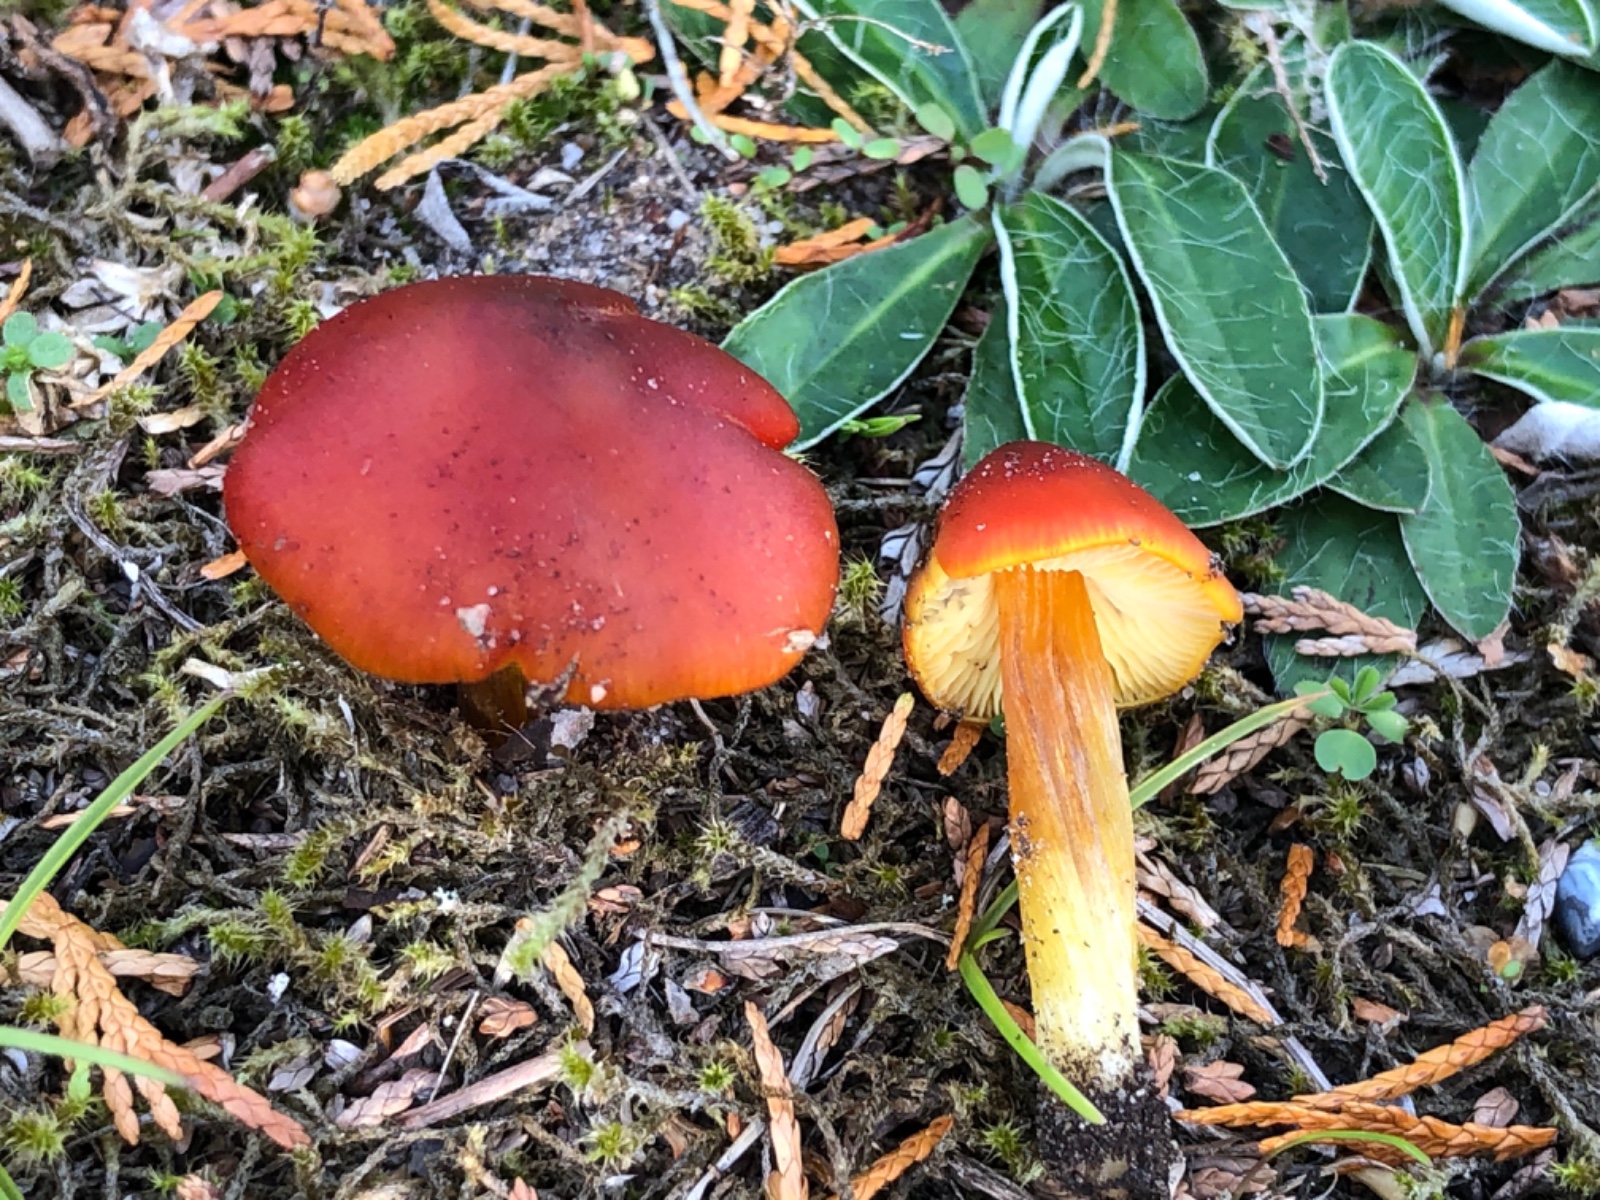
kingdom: Fungi
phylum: Basidiomycota
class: Agaricomycetes
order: Agaricales
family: Hygrophoraceae
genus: Hygrocybe
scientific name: Hygrocybe conica
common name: kegle-vokshat
